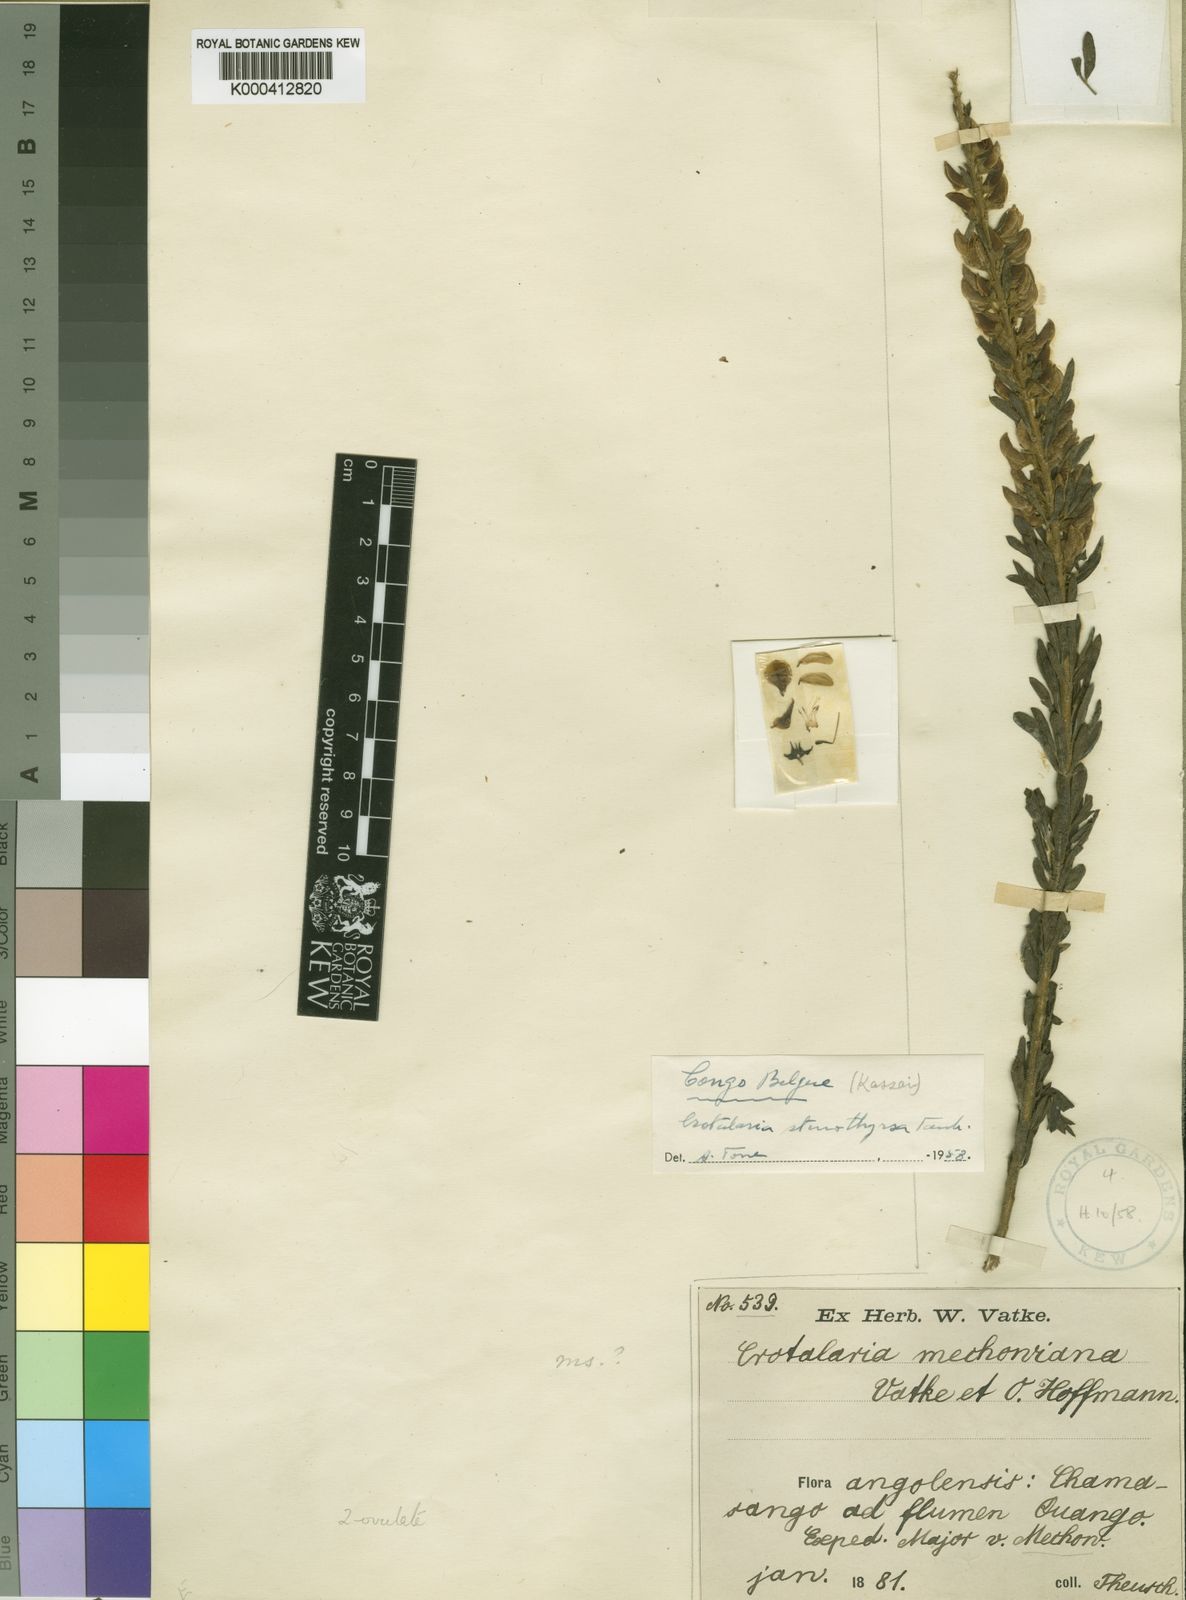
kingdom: Plantae
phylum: Tracheophyta
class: Magnoliopsida
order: Fabales
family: Fabaceae
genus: Crotalaria
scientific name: Crotalaria stenothyrsa
